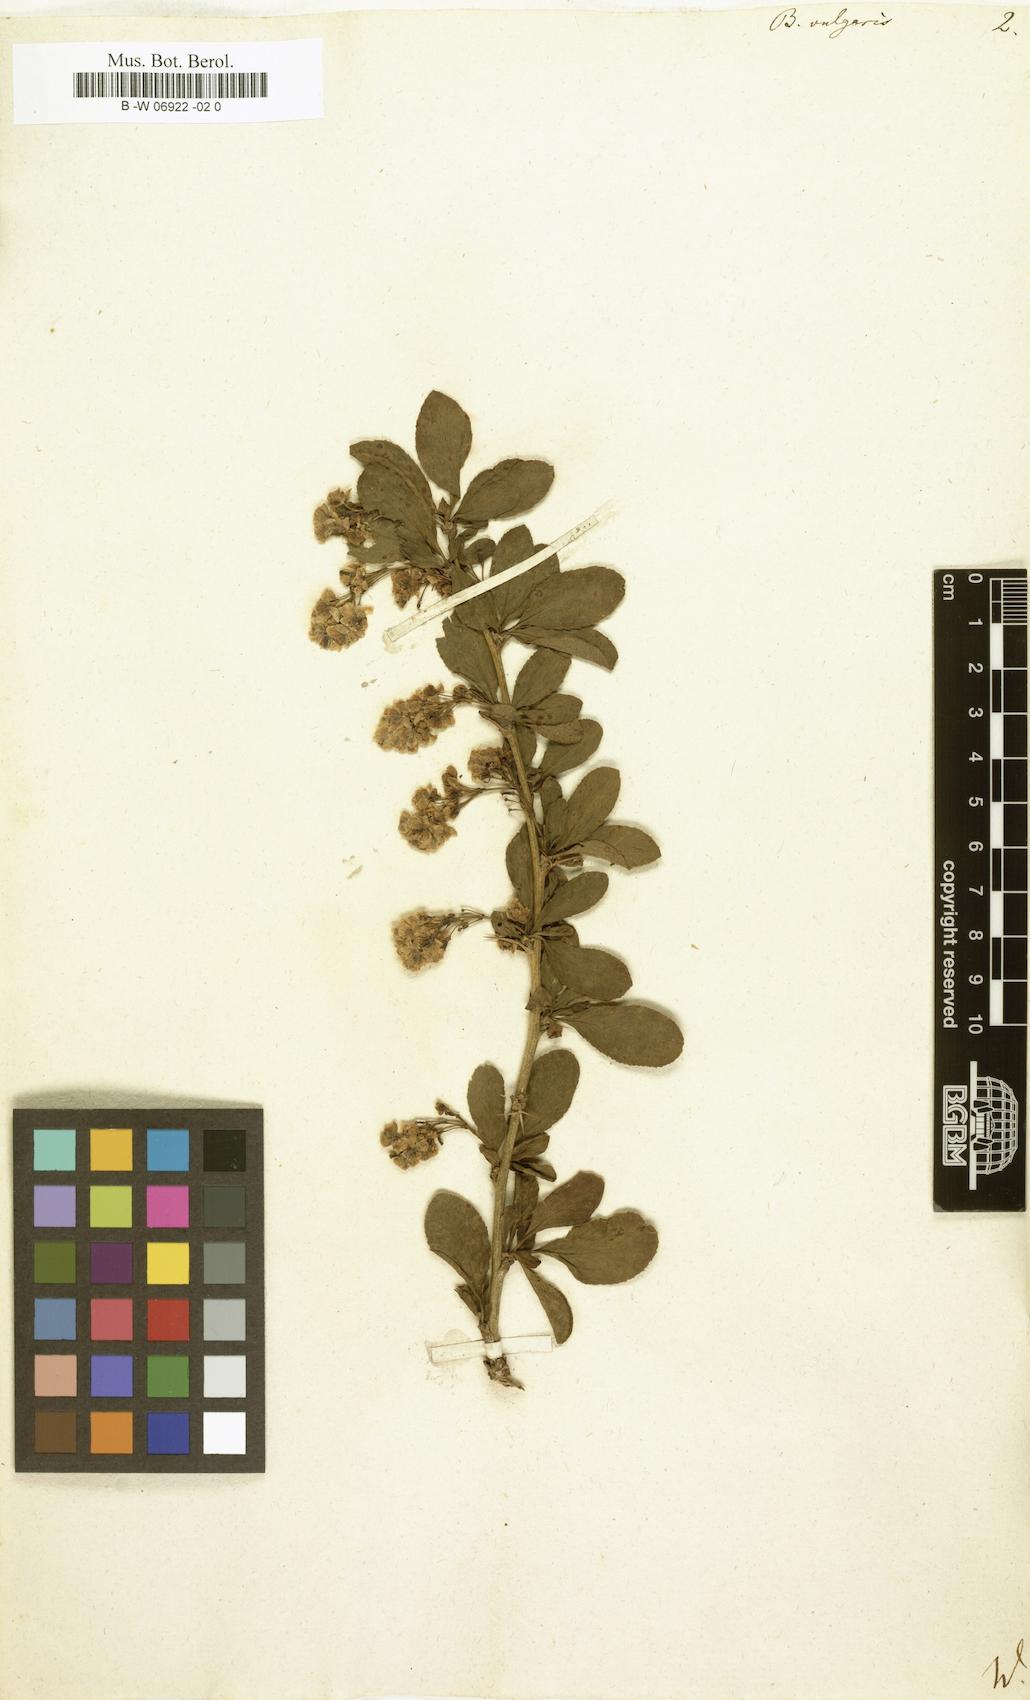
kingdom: Plantae
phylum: Tracheophyta
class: Magnoliopsida
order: Ranunculales
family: Berberidaceae
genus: Berberis
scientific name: Berberis vulgaris
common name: Barberry
